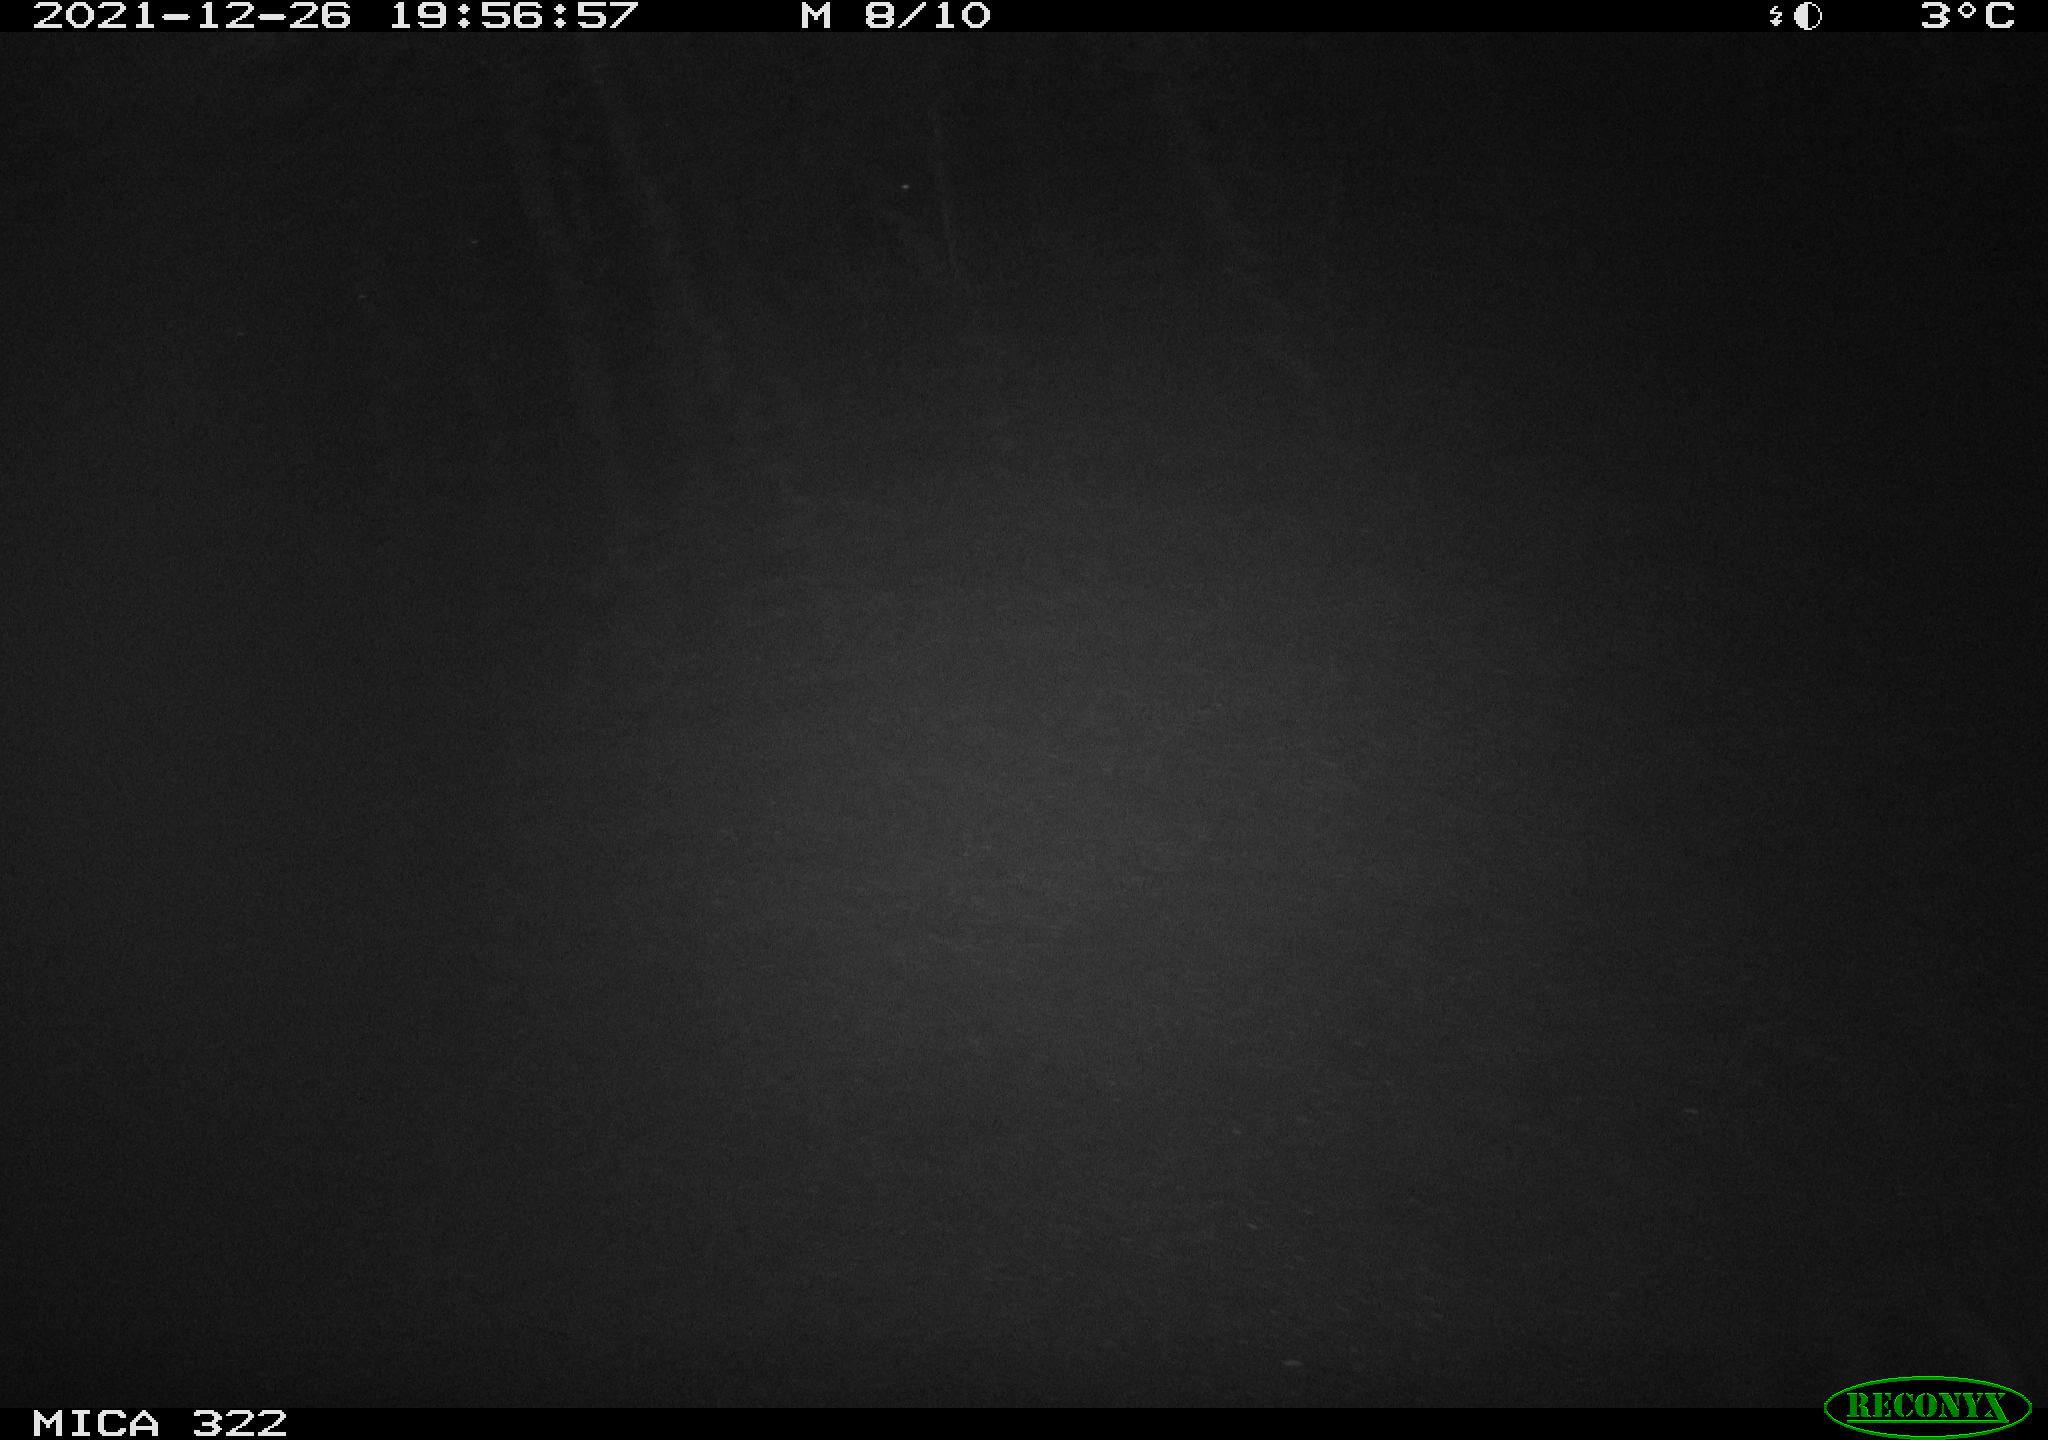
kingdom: Animalia
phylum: Chordata
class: Mammalia
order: Rodentia
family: Muridae
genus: Rattus
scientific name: Rattus norvegicus
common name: Brown rat
